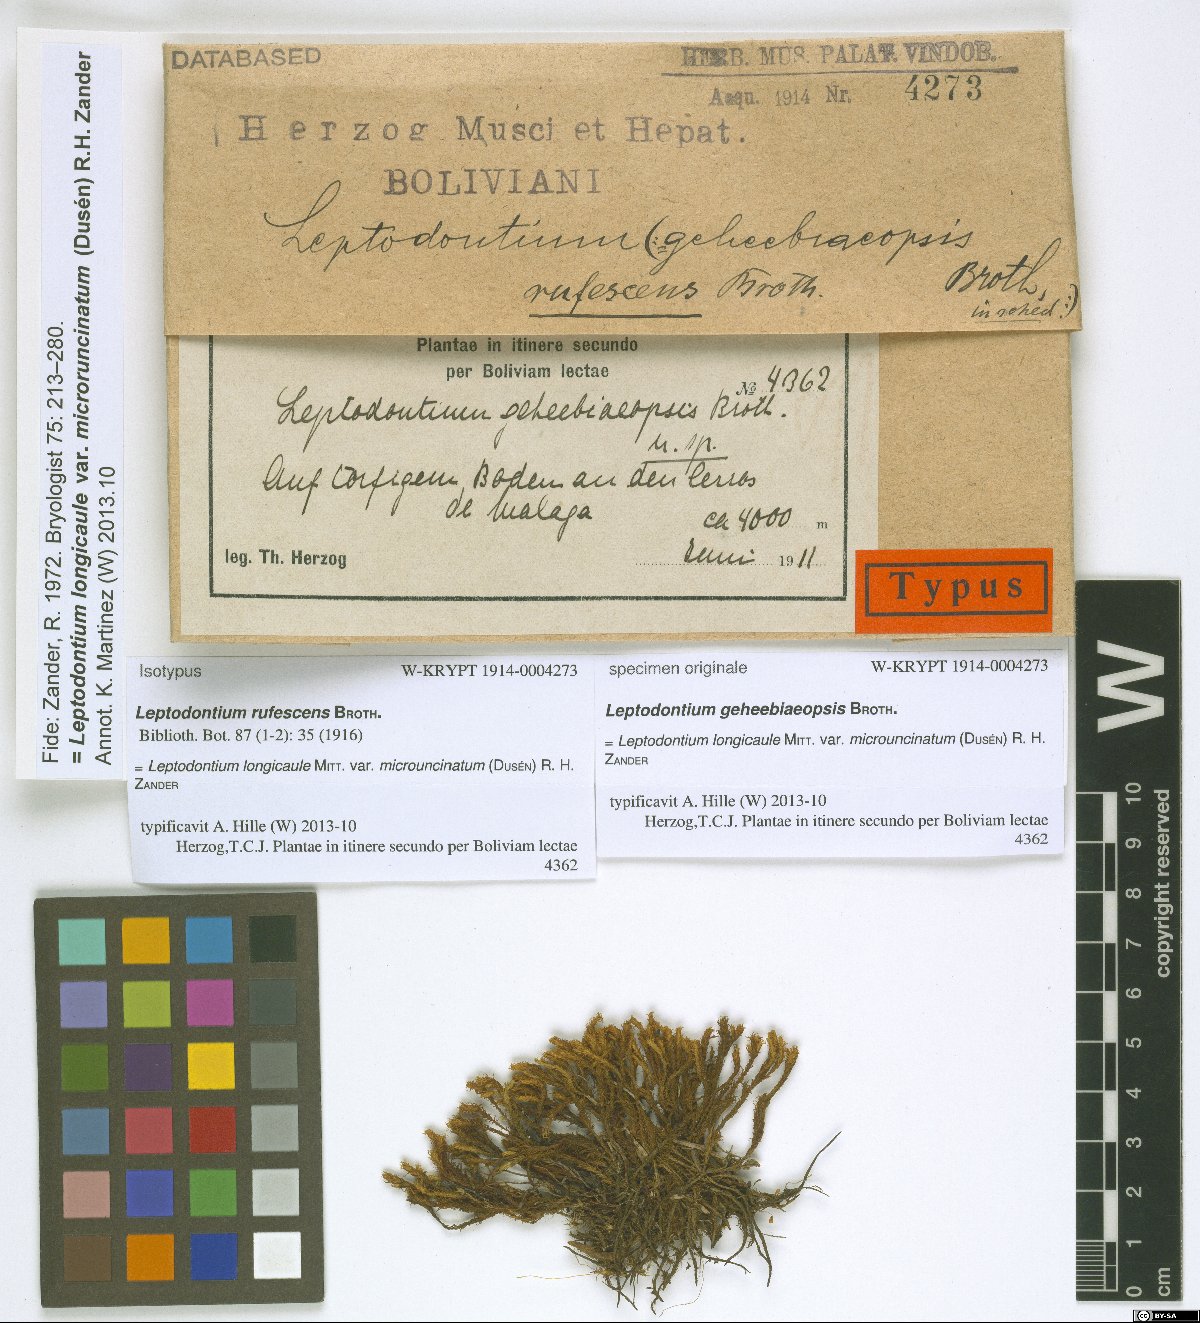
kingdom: Plantae
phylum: Bryophyta
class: Bryopsida
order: Pottiales
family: Pottiaceae
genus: Leptodontium
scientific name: Leptodontium longicaule
